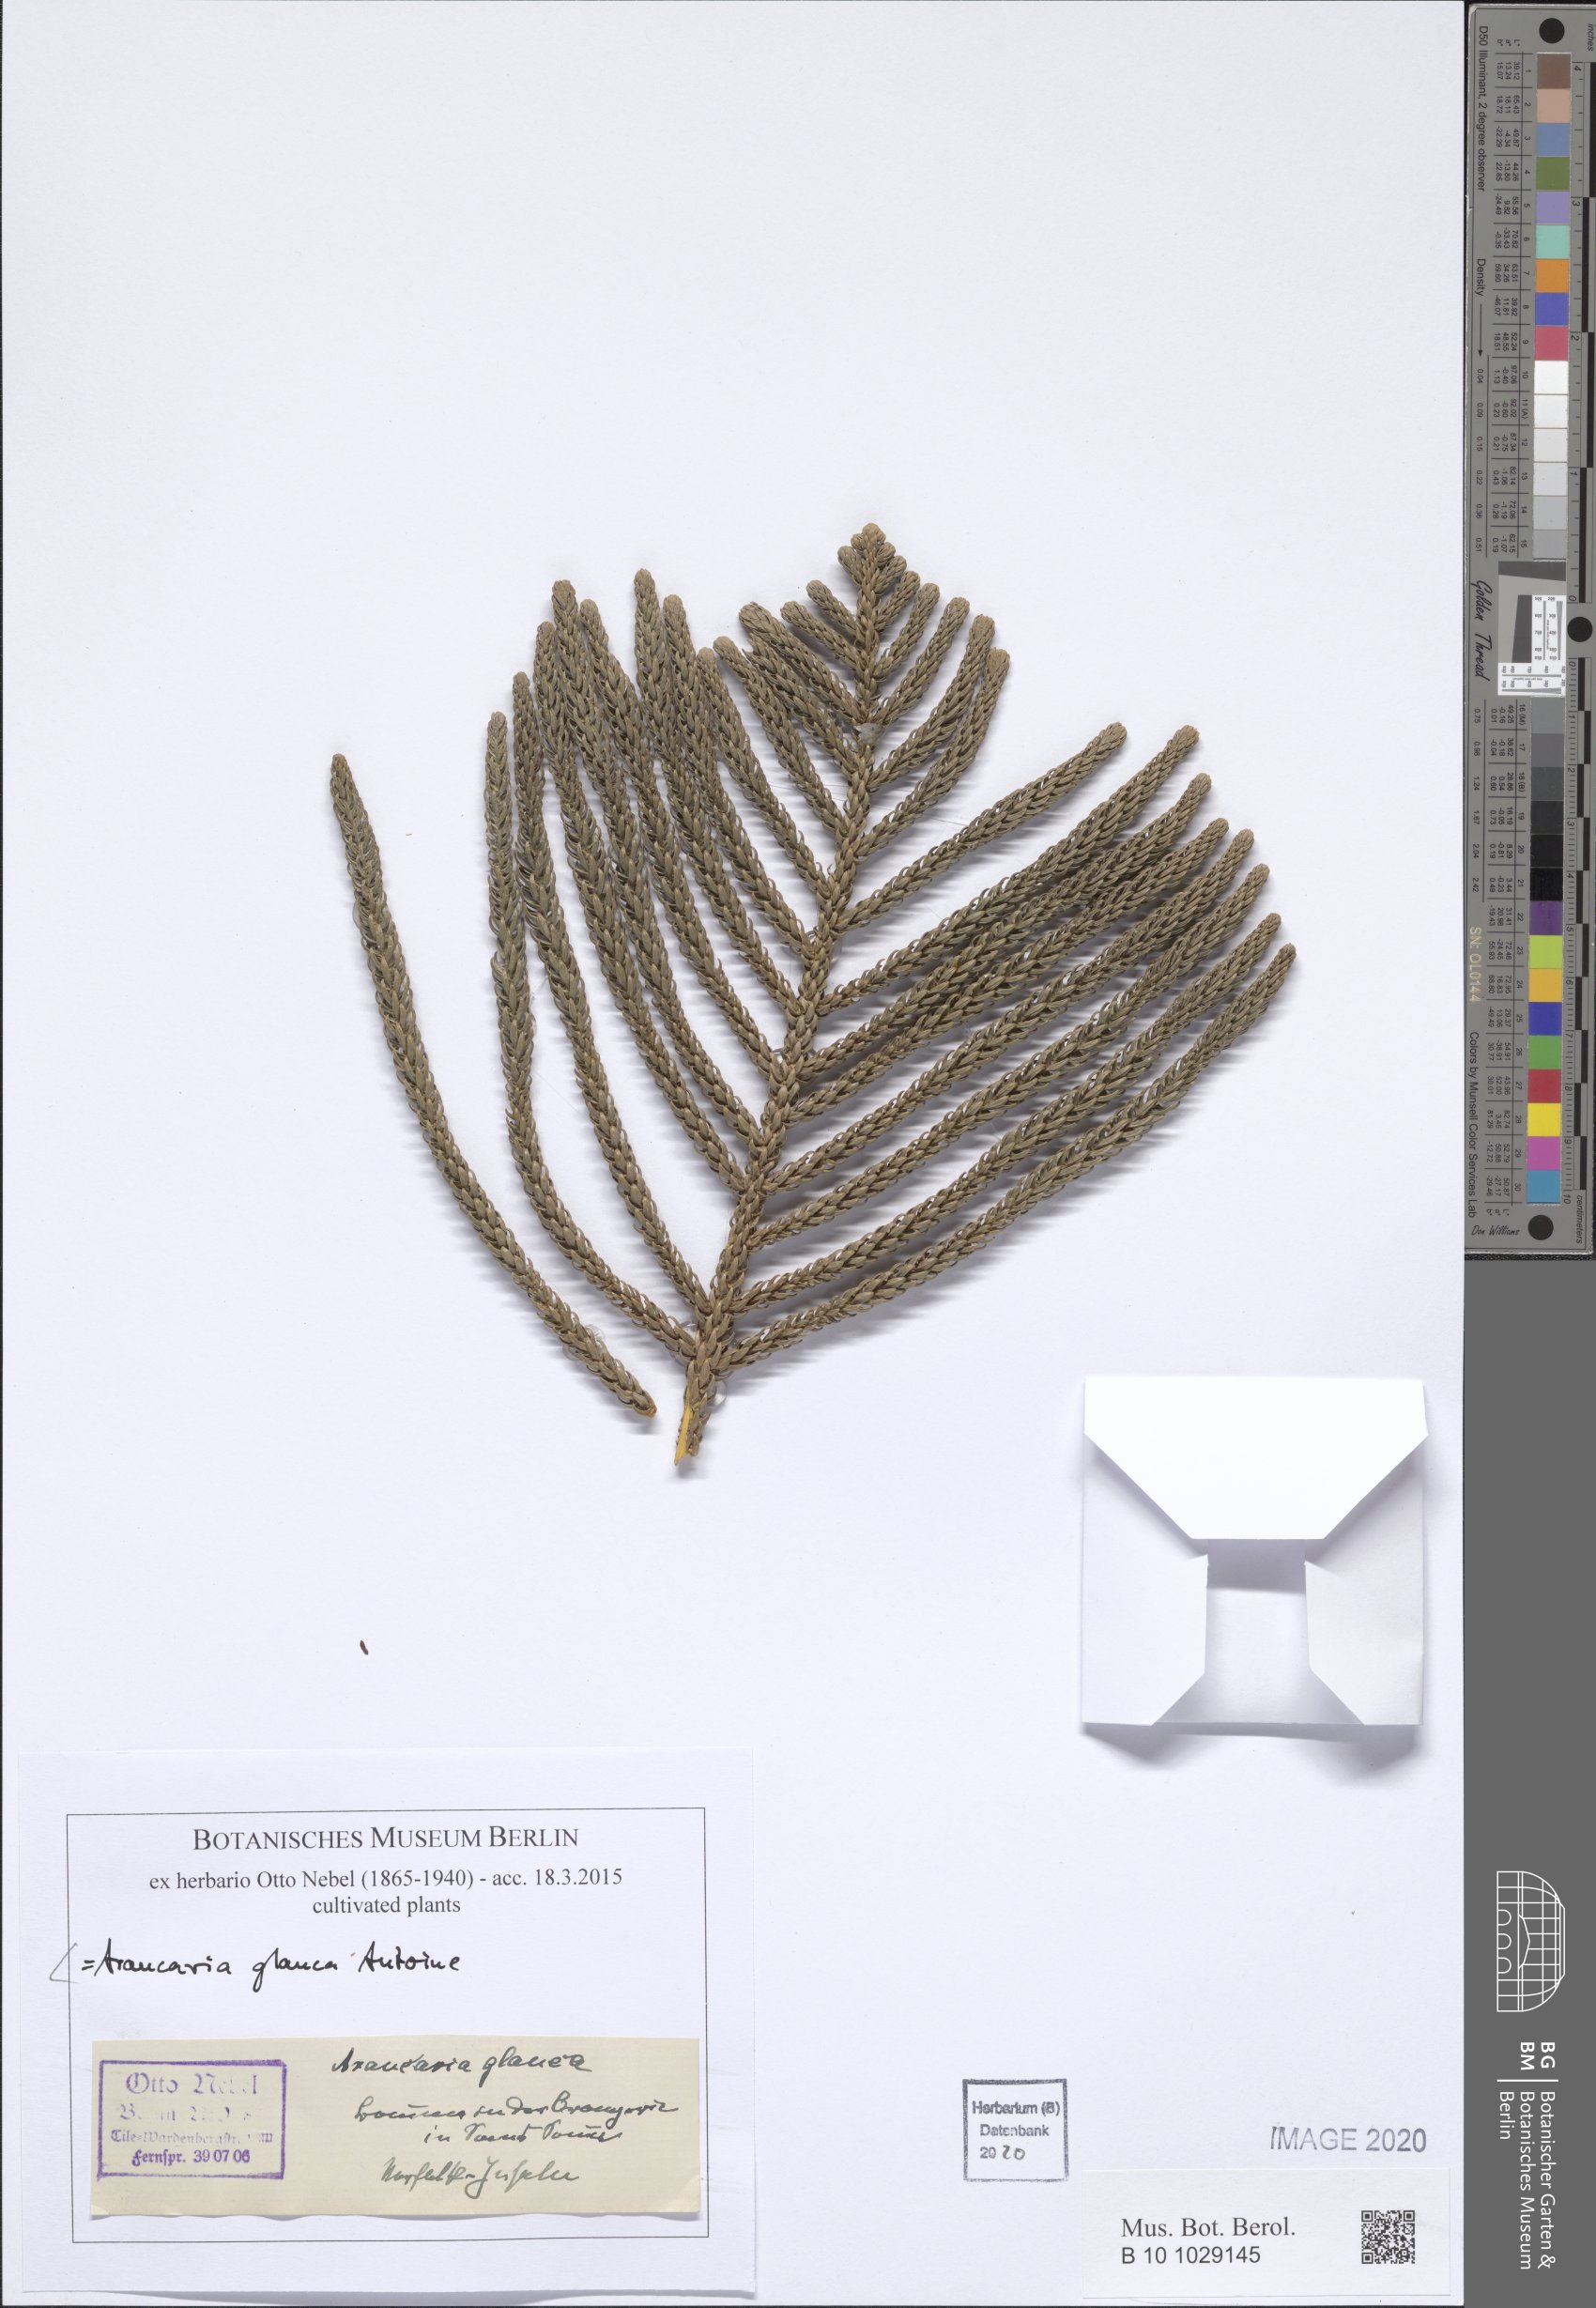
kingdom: Plantae
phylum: Tracheophyta
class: Pinopsida
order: Pinales
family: Araucariaceae
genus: Araucaria
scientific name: Araucaria cunninghamii
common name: Colonial pine
